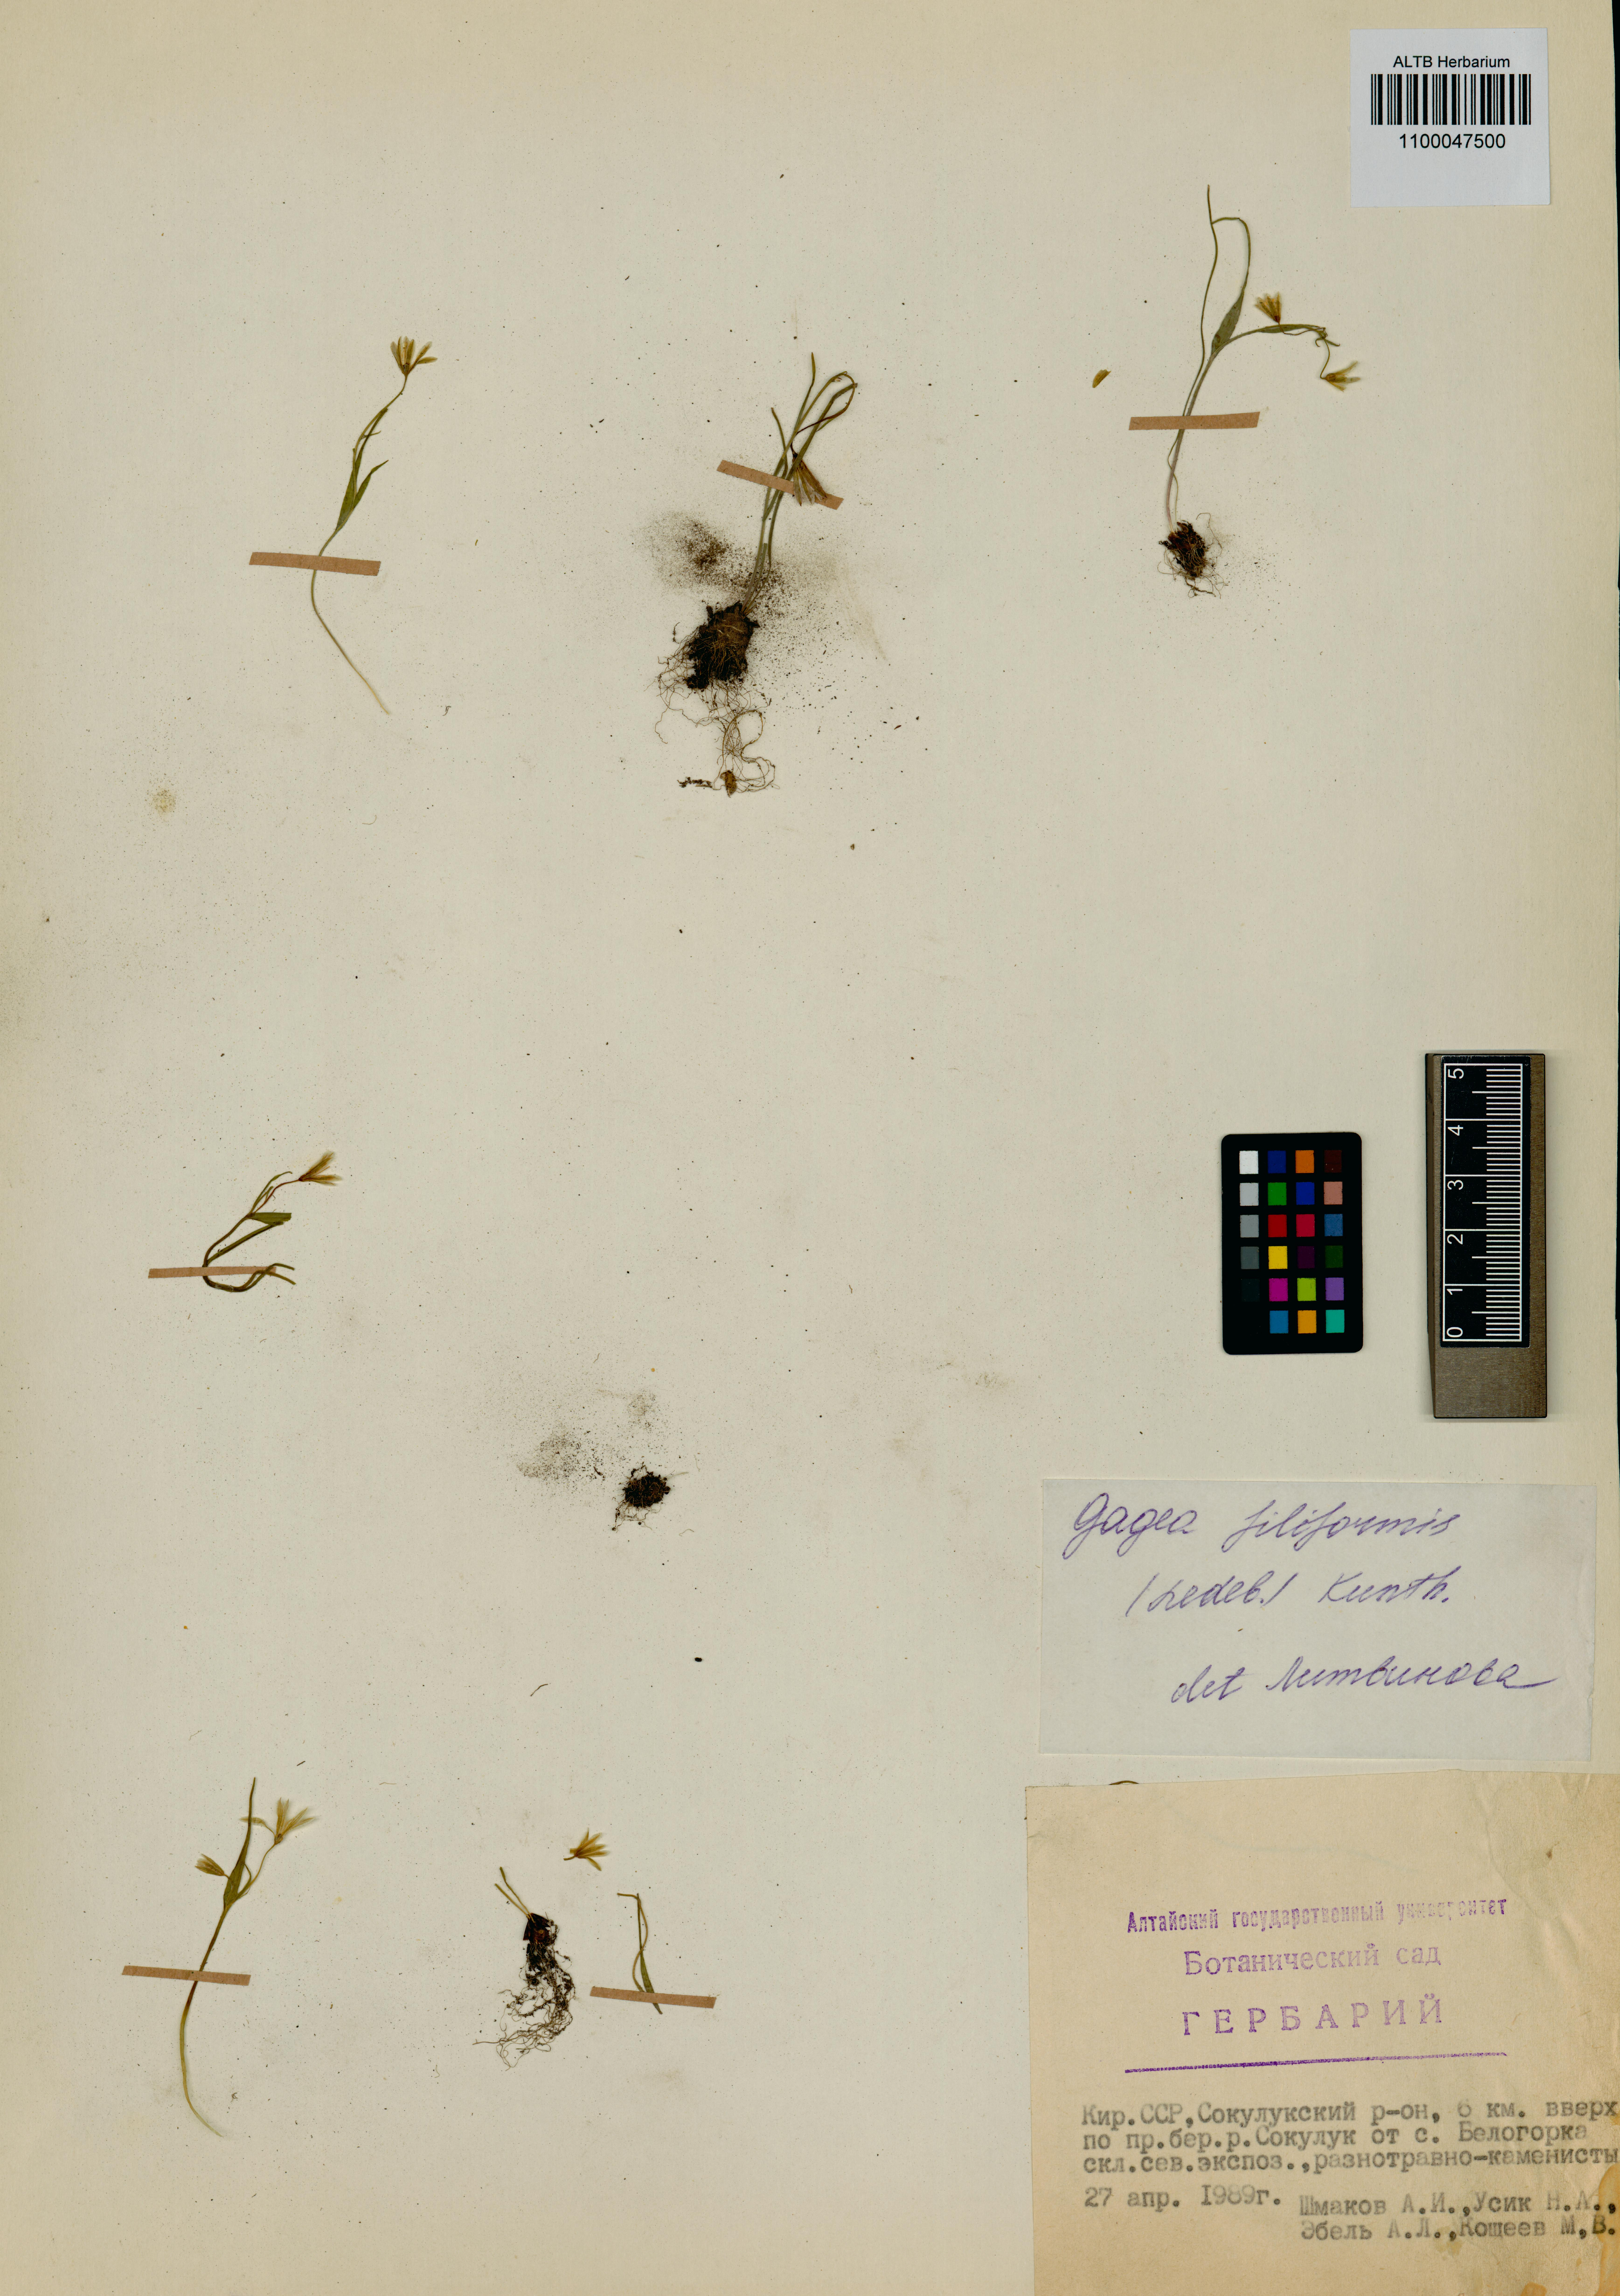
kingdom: Plantae
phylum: Tracheophyta
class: Liliopsida
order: Liliales
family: Liliaceae
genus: Gagea
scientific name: Gagea filiformis
